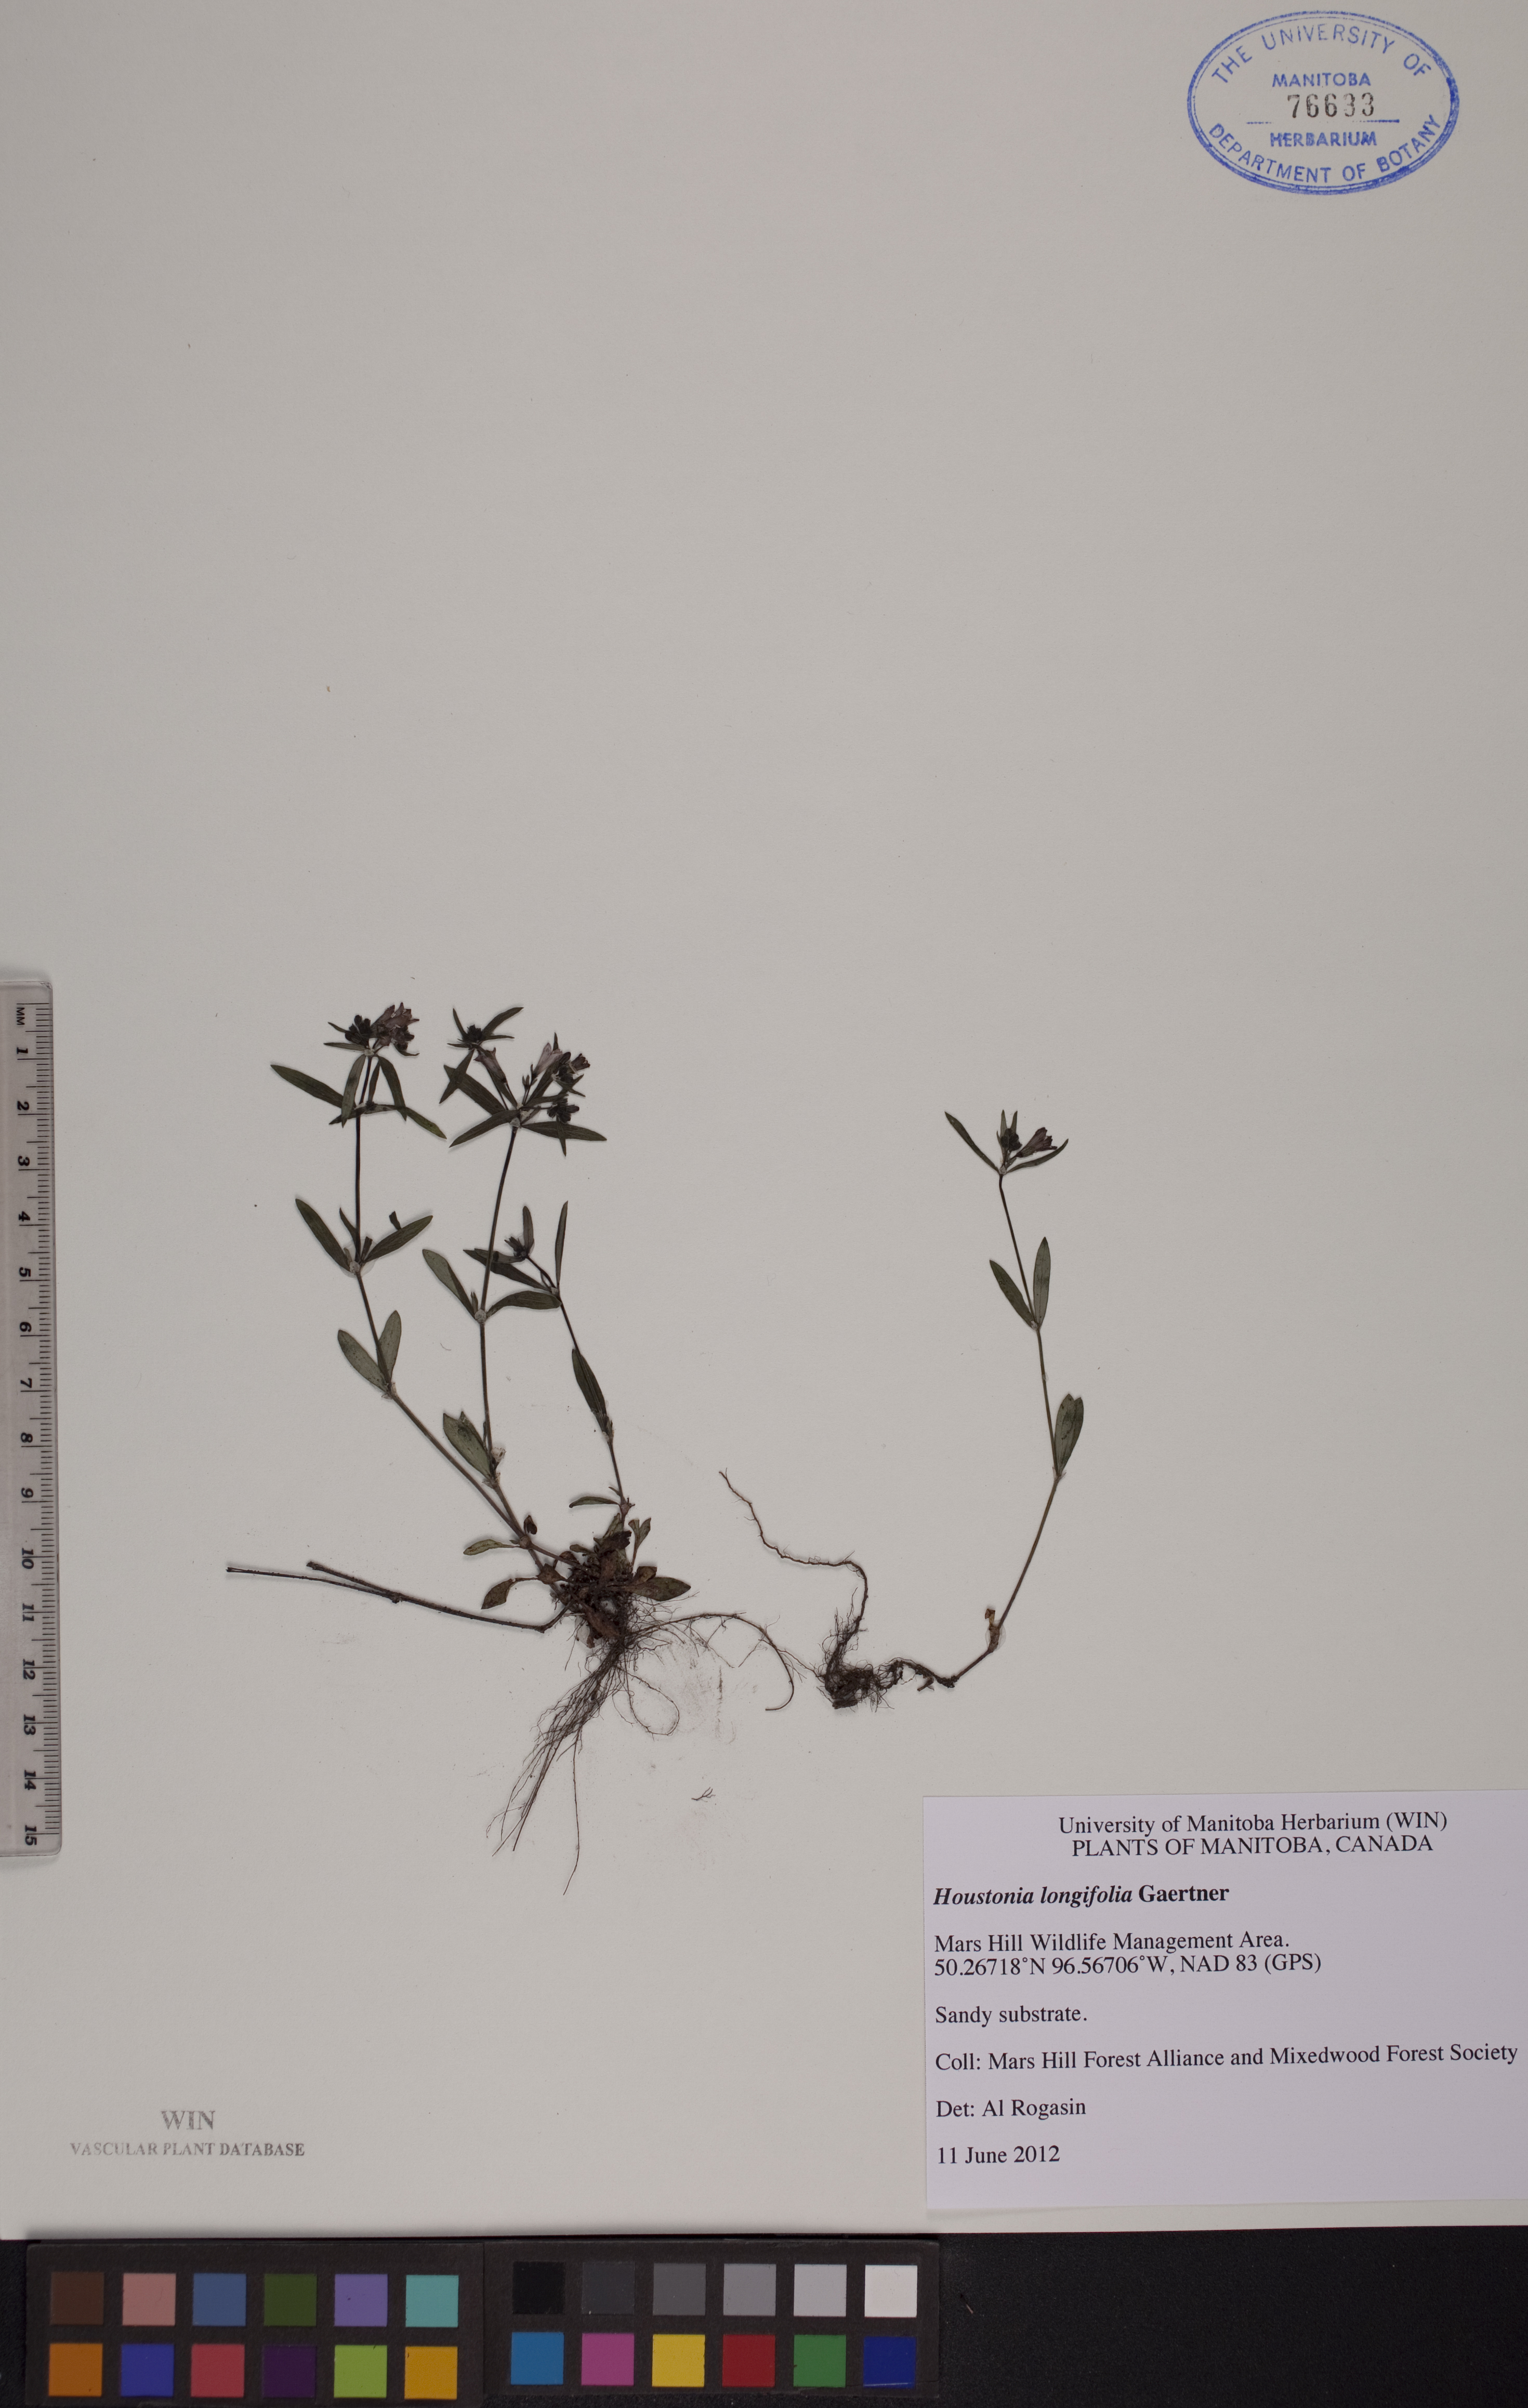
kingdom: Plantae
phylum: Tracheophyta
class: Magnoliopsida
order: Gentianales
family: Rubiaceae
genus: Houstonia
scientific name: Houstonia longifolia
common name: Long-leaved bluets
